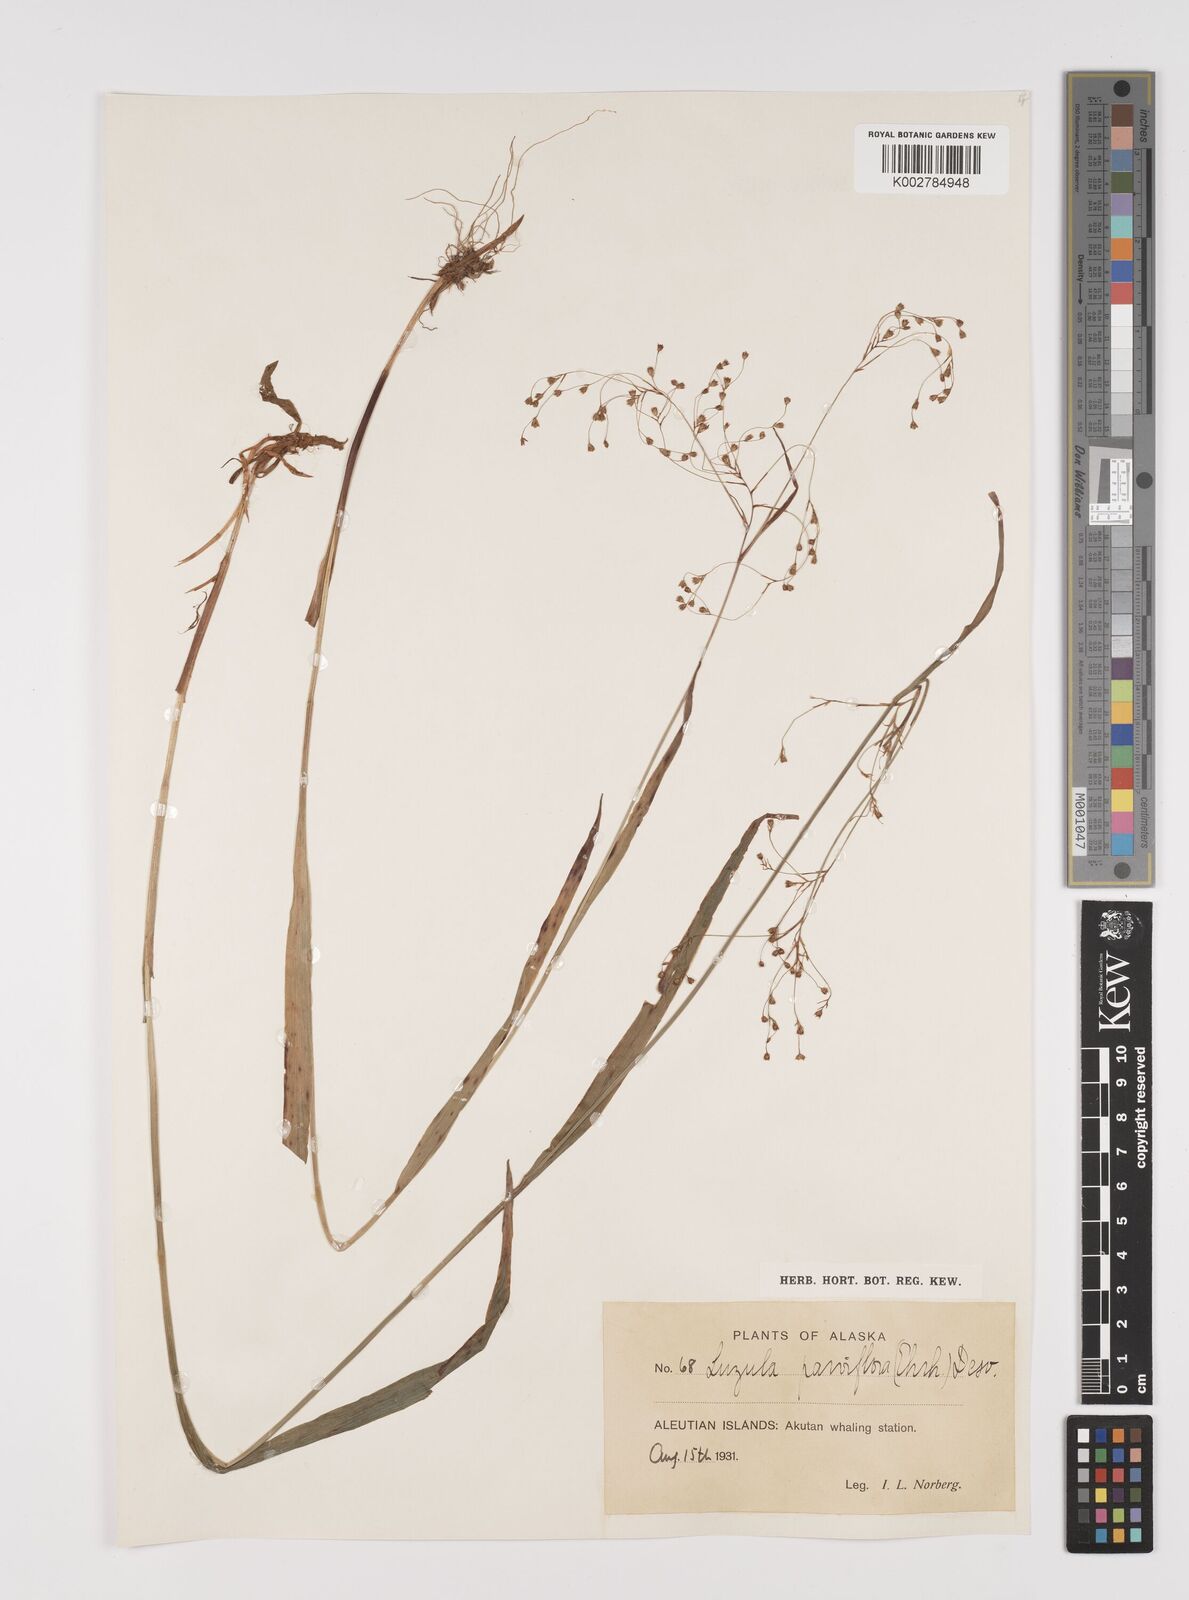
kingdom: Plantae
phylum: Tracheophyta
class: Liliopsida
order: Poales
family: Juncaceae
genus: Luzula
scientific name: Luzula parviflora
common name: Millet woodrush
